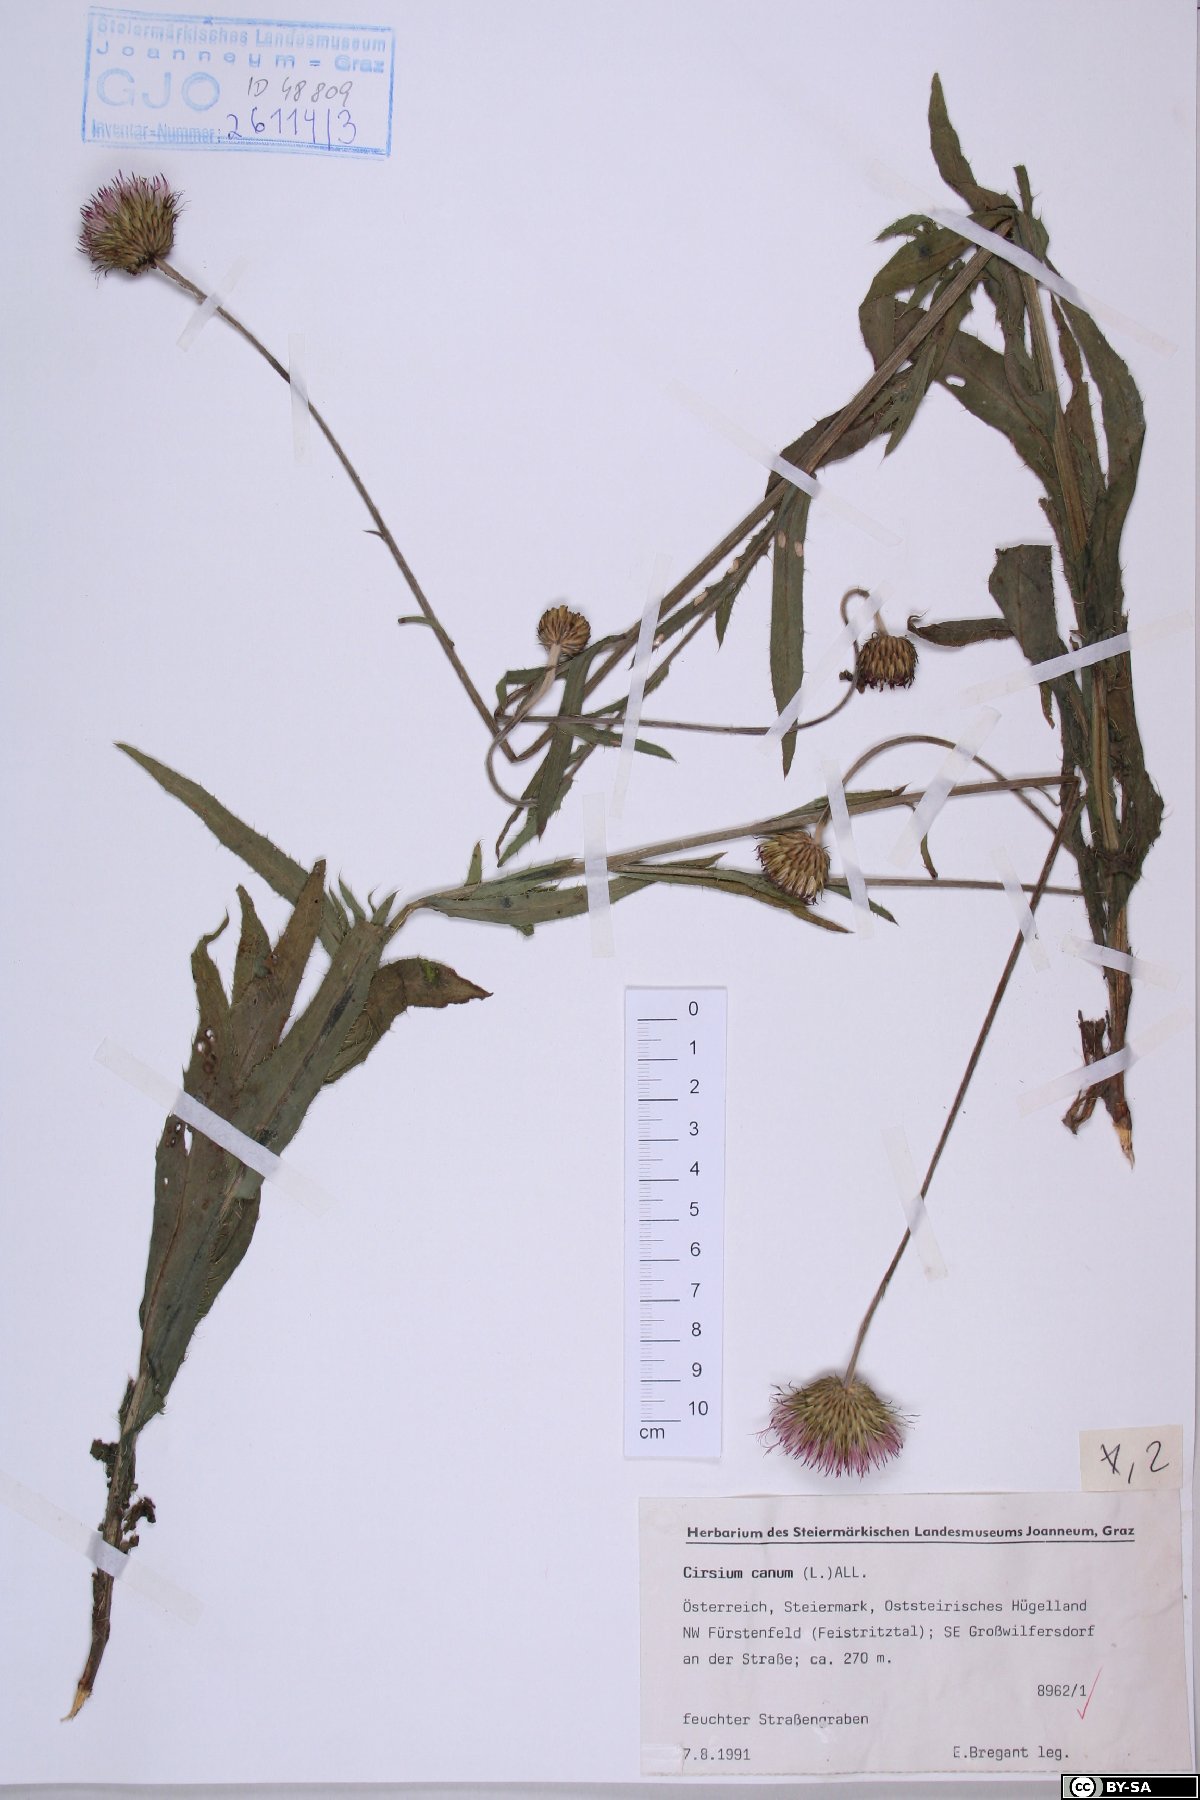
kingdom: Plantae
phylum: Tracheophyta
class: Magnoliopsida
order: Asterales
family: Asteraceae
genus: Cirsium
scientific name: Cirsium canum
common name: Queen anne's thistle
